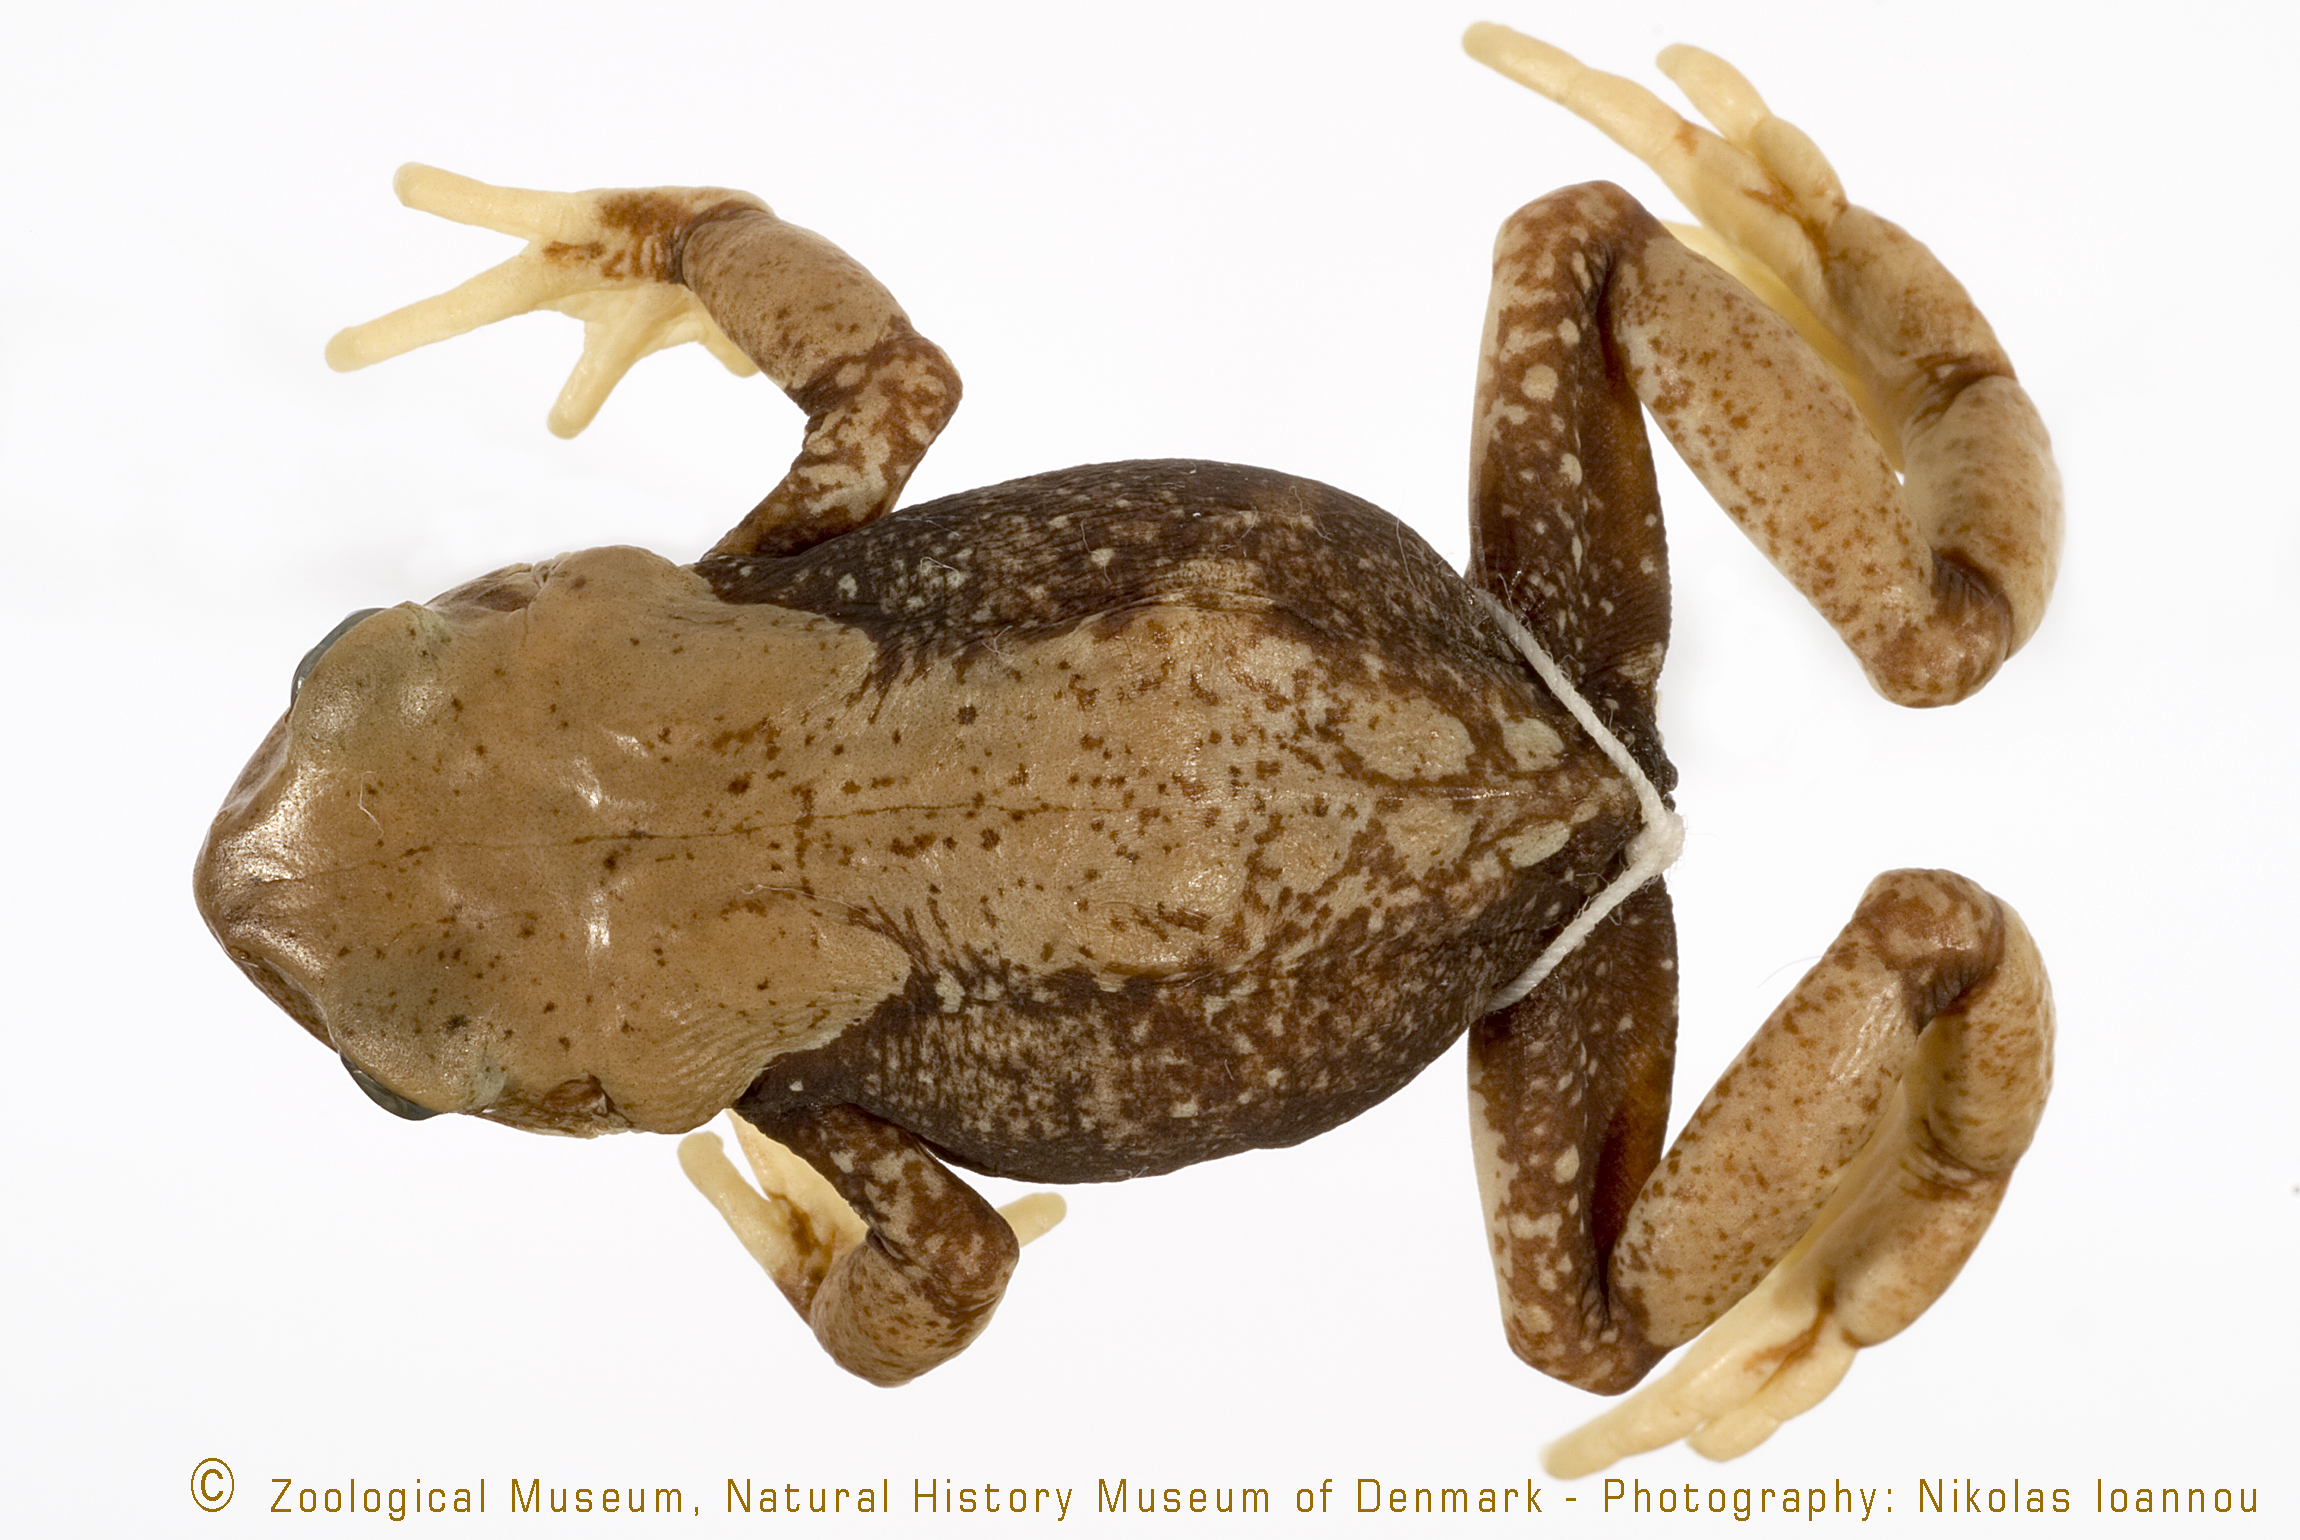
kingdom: Animalia
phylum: Chordata
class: Amphibia
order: Anura
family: Bufonidae
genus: Nectophrynoides
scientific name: Nectophrynoides viviparus
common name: Morogoro tree toad
